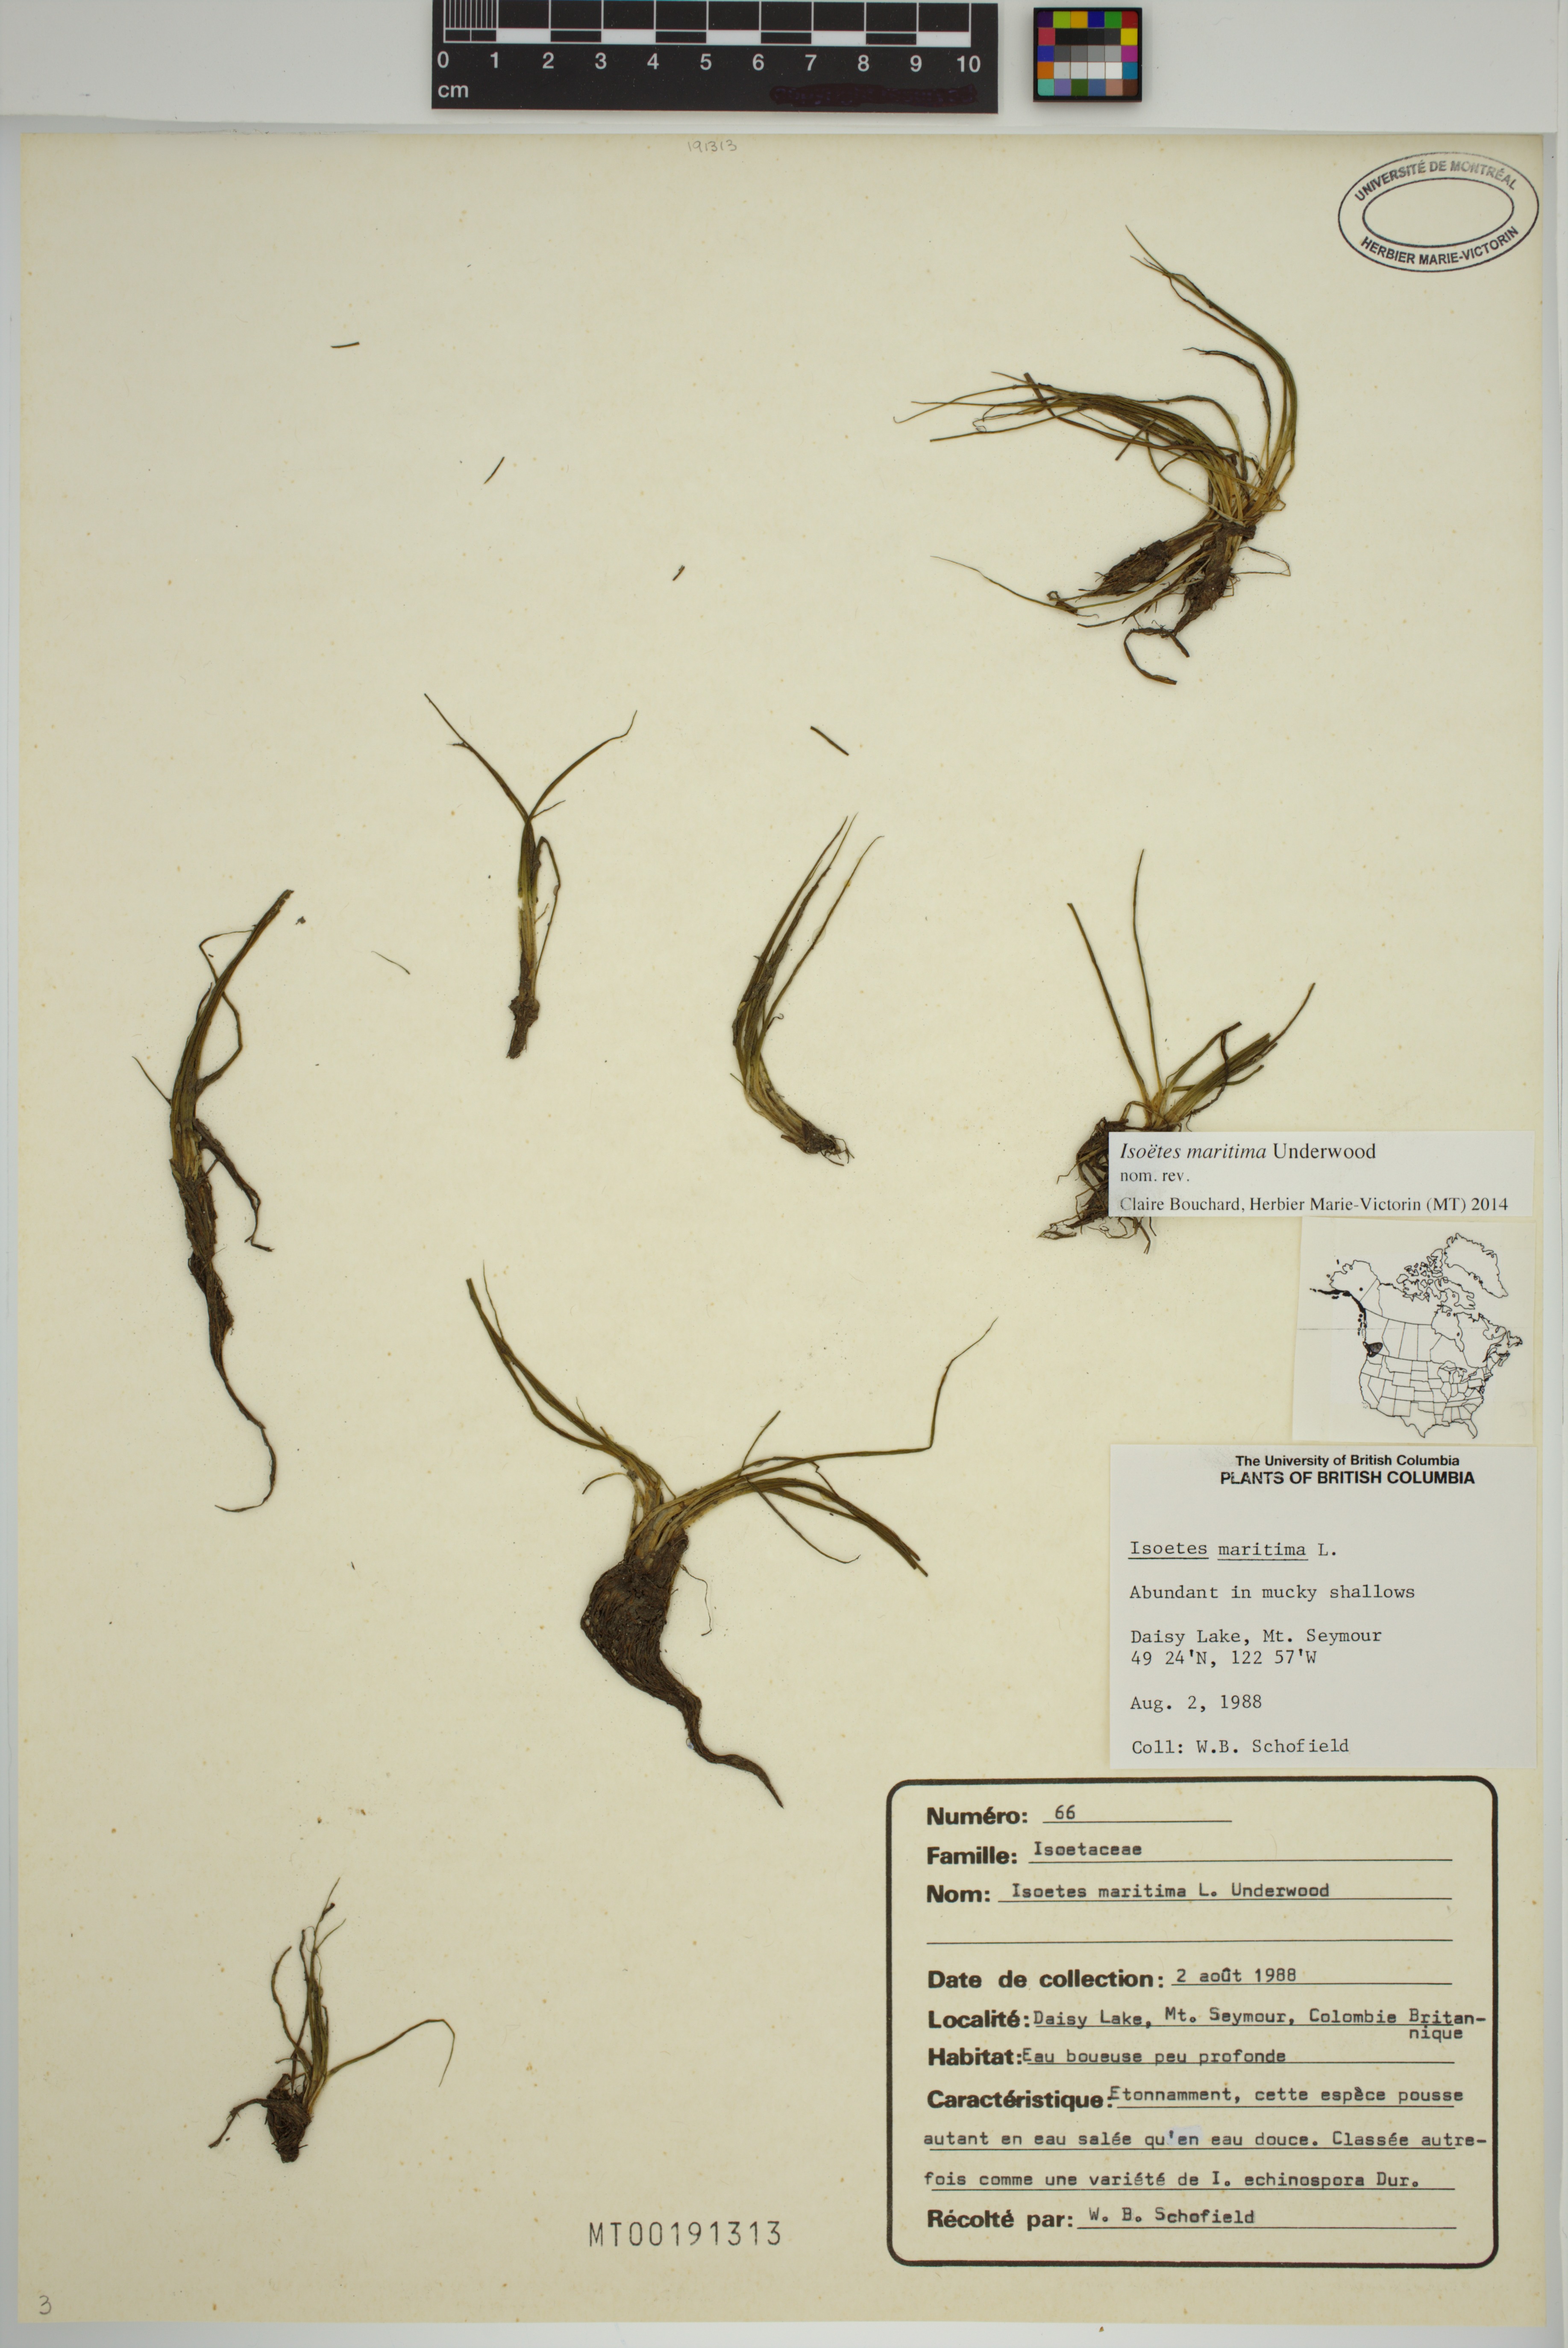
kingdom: Plantae
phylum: Tracheophyta
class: Lycopodiopsida
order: Isoetales
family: Isoetaceae
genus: Isoetes
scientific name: Isoetes maritima
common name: Coastal quillwort
